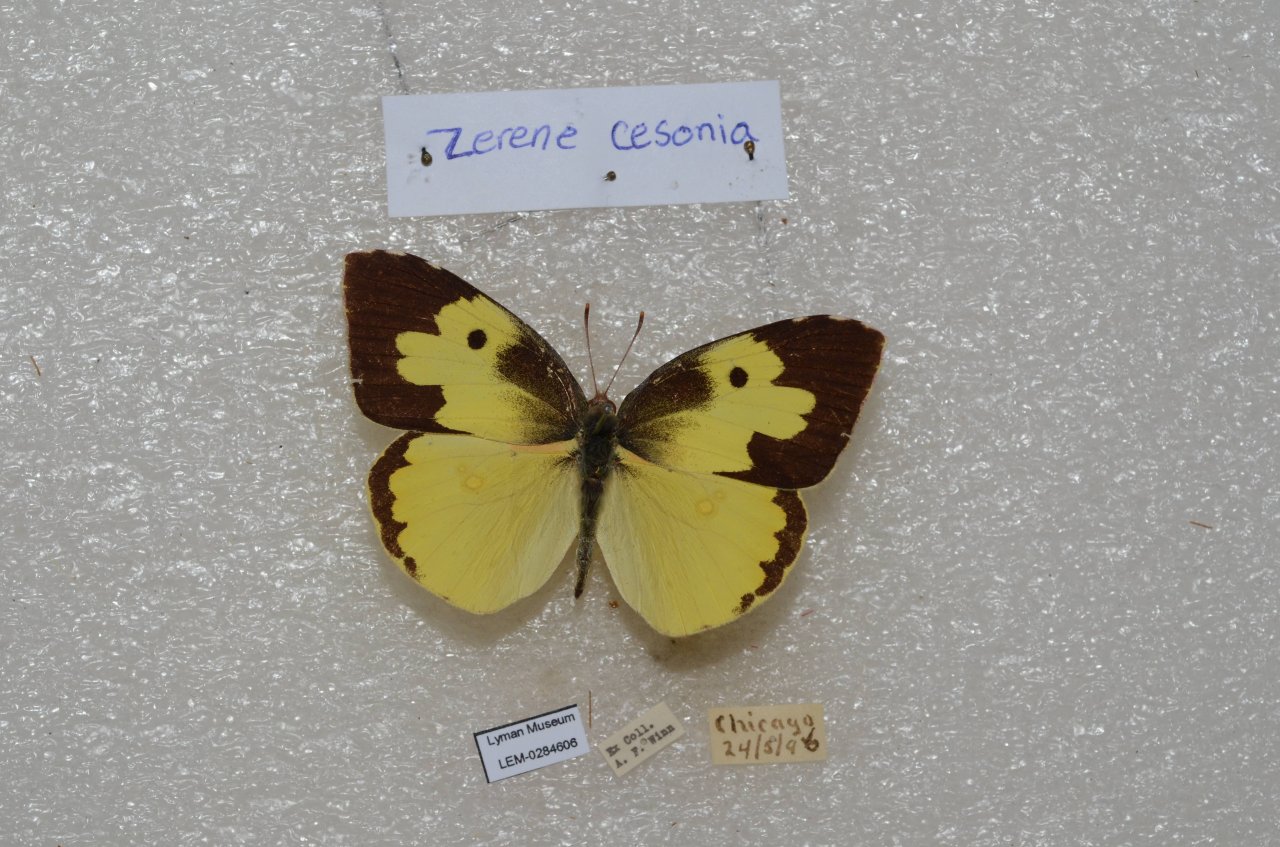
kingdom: Animalia
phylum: Arthropoda
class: Insecta
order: Lepidoptera
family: Pieridae
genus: Zerene
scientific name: Zerene cesonia
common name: Southern Dogface
